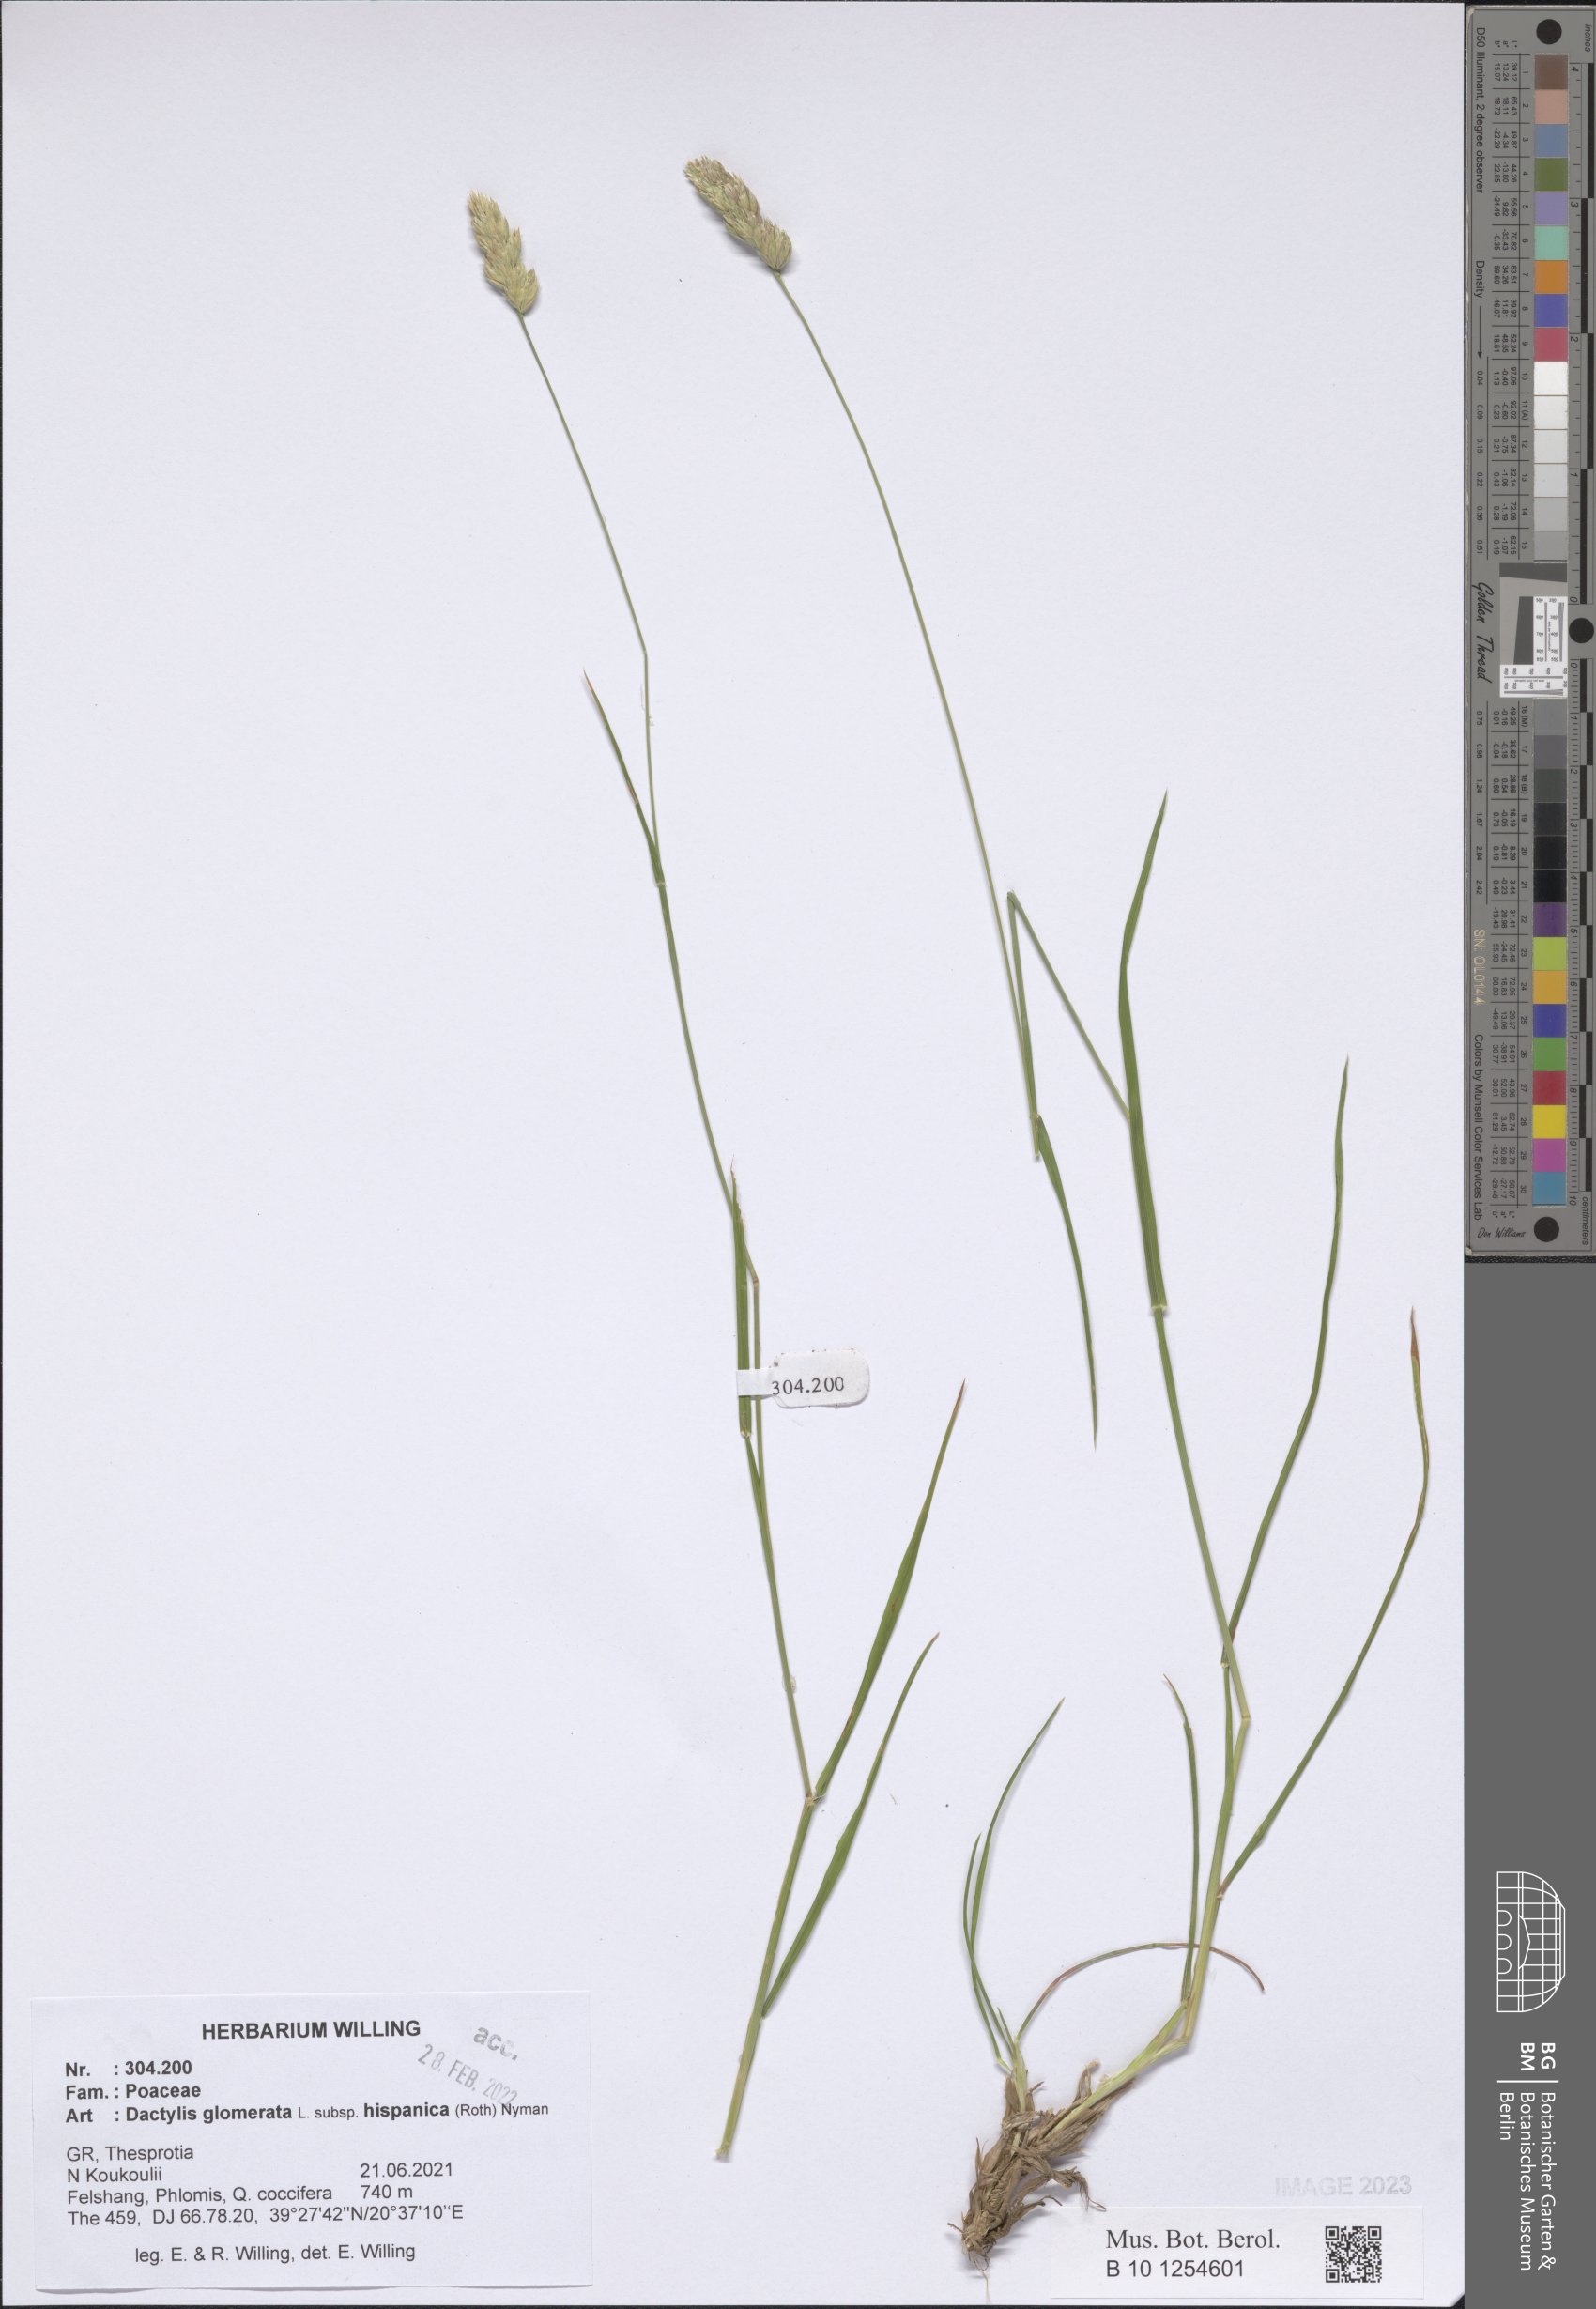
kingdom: Plantae
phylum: Tracheophyta
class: Liliopsida
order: Poales
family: Poaceae
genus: Dactylis
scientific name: Dactylis glomerata
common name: Orchardgrass
